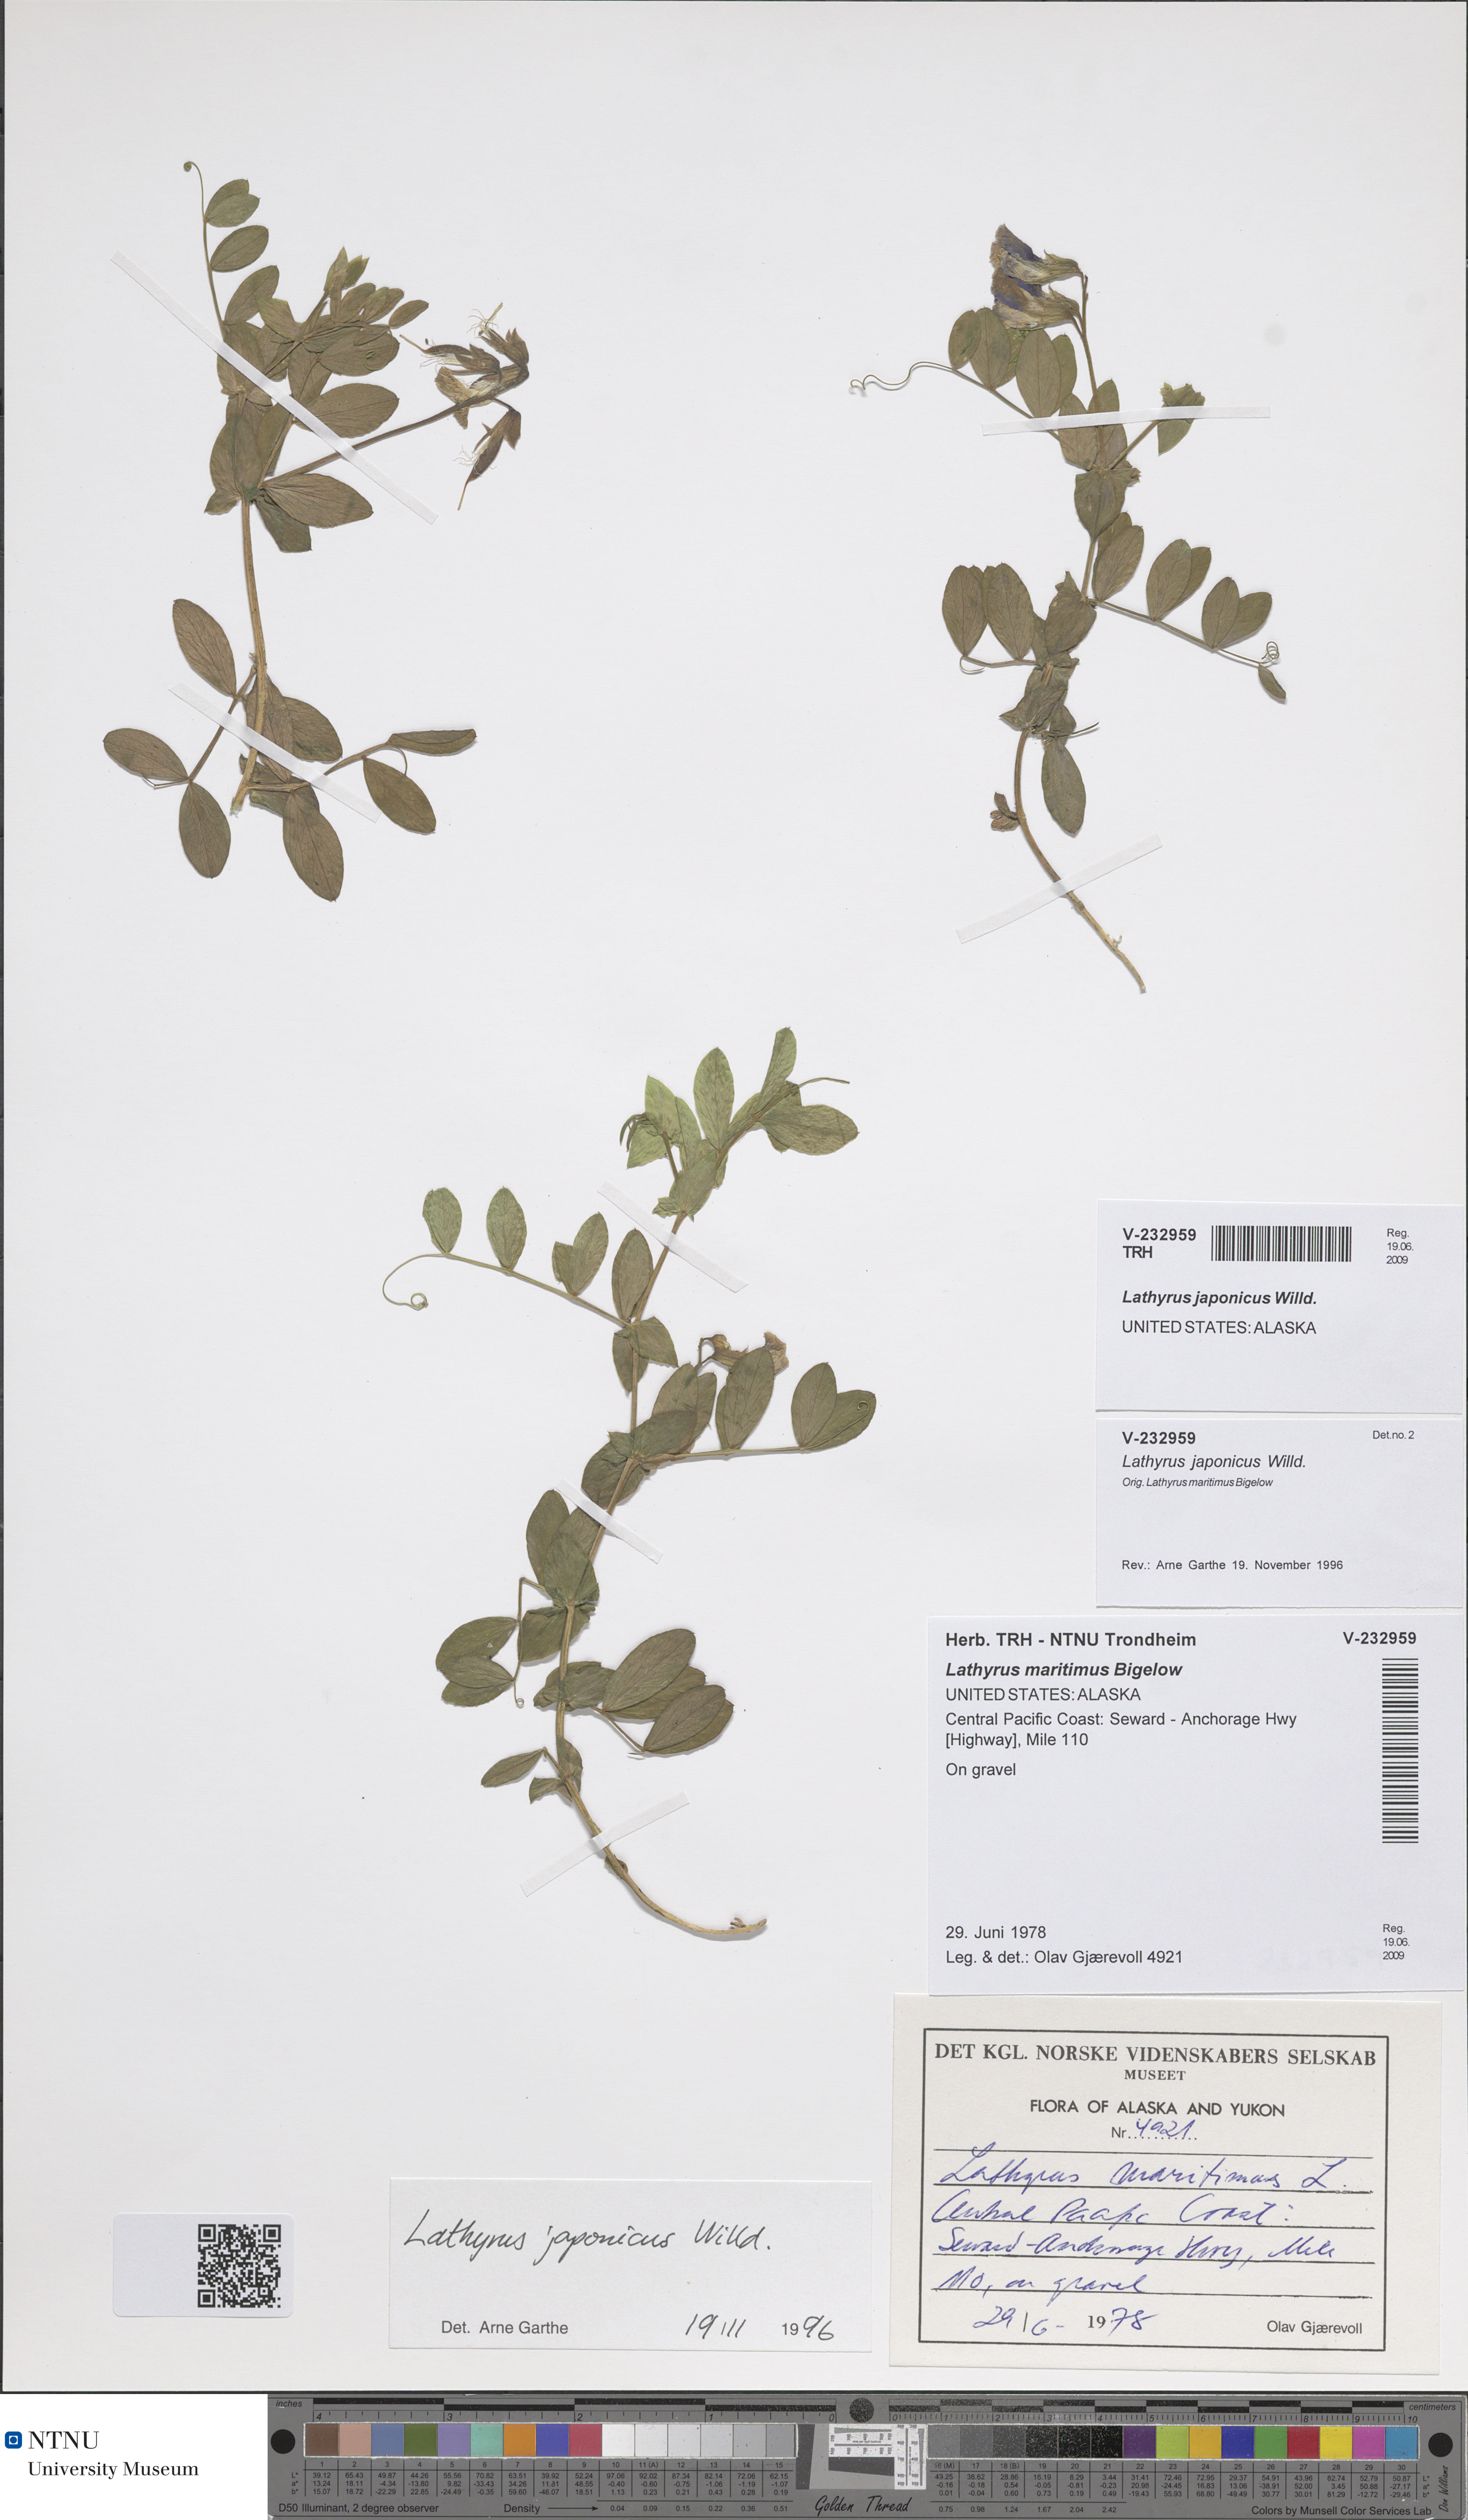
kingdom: Plantae
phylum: Tracheophyta
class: Magnoliopsida
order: Fabales
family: Fabaceae
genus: Lathyrus
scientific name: Lathyrus japonicus
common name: Sea pea
